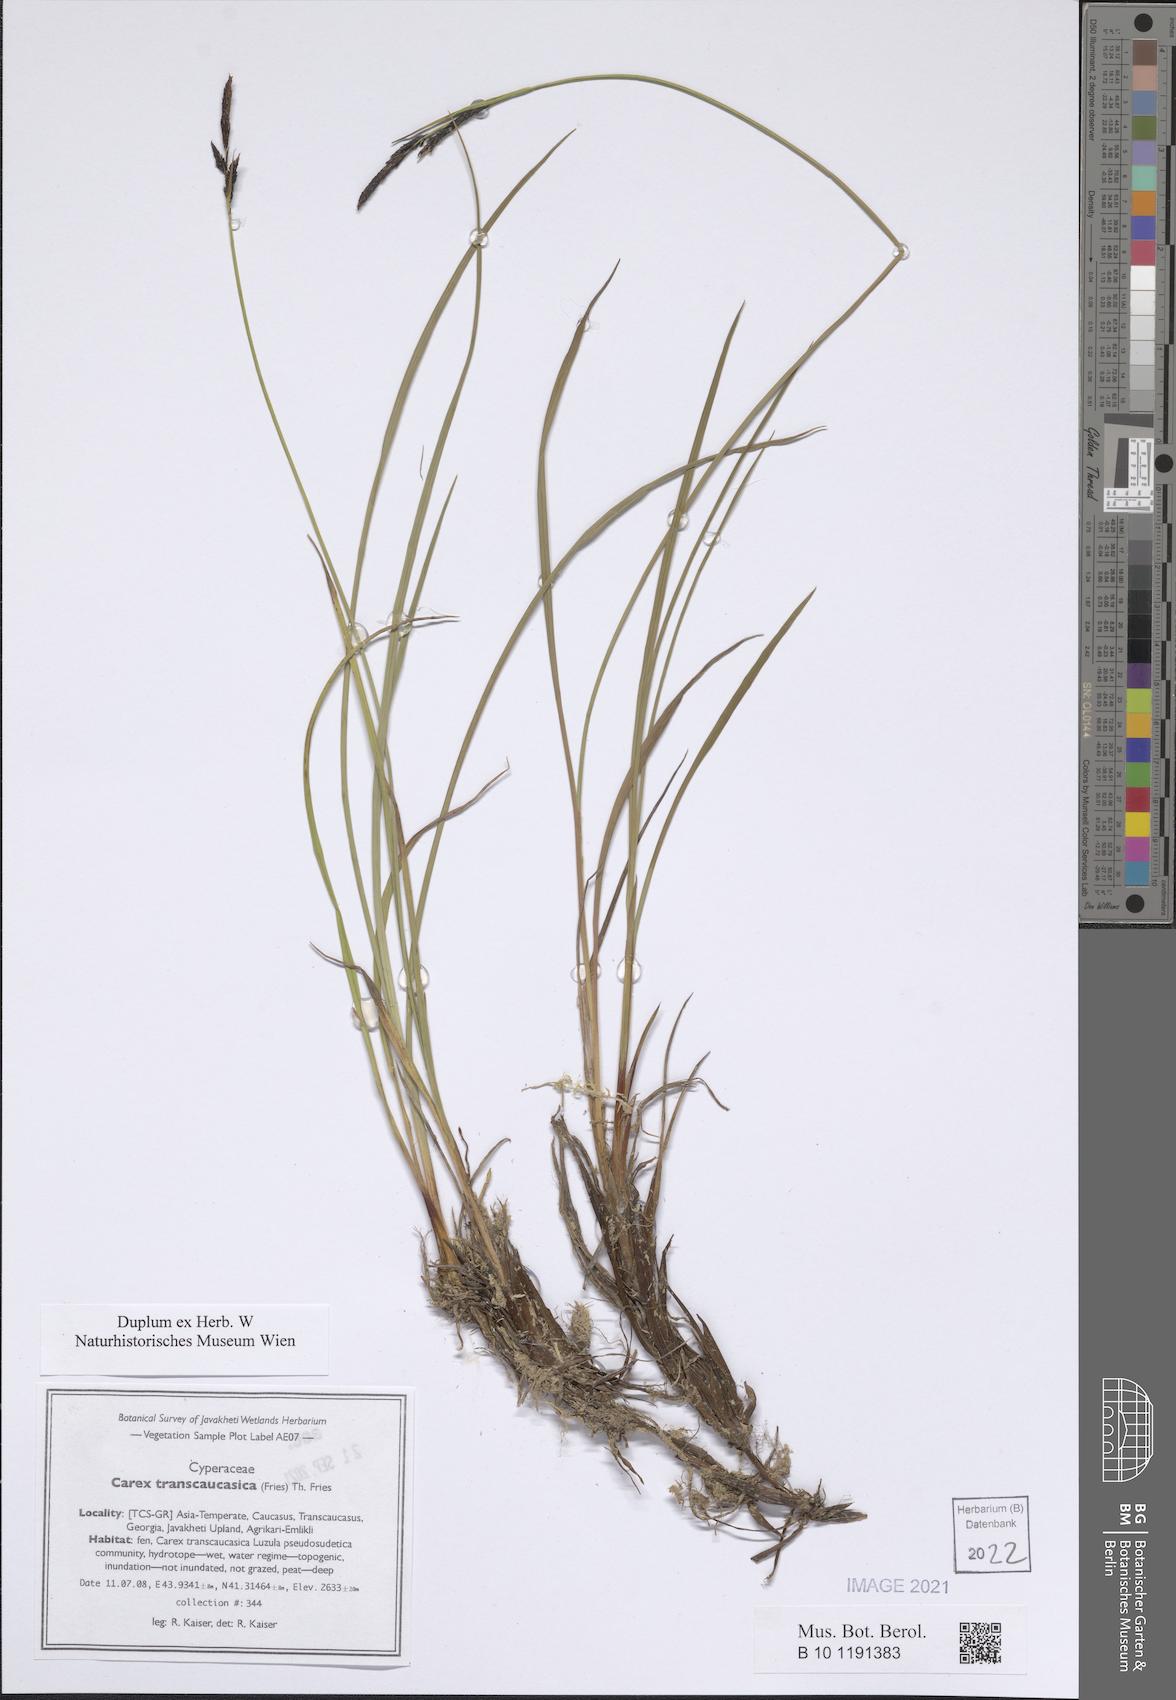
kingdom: Plantae
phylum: Tracheophyta
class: Liliopsida
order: Poales
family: Cyperaceae
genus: Carex
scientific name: Carex nigra
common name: Common sedge
